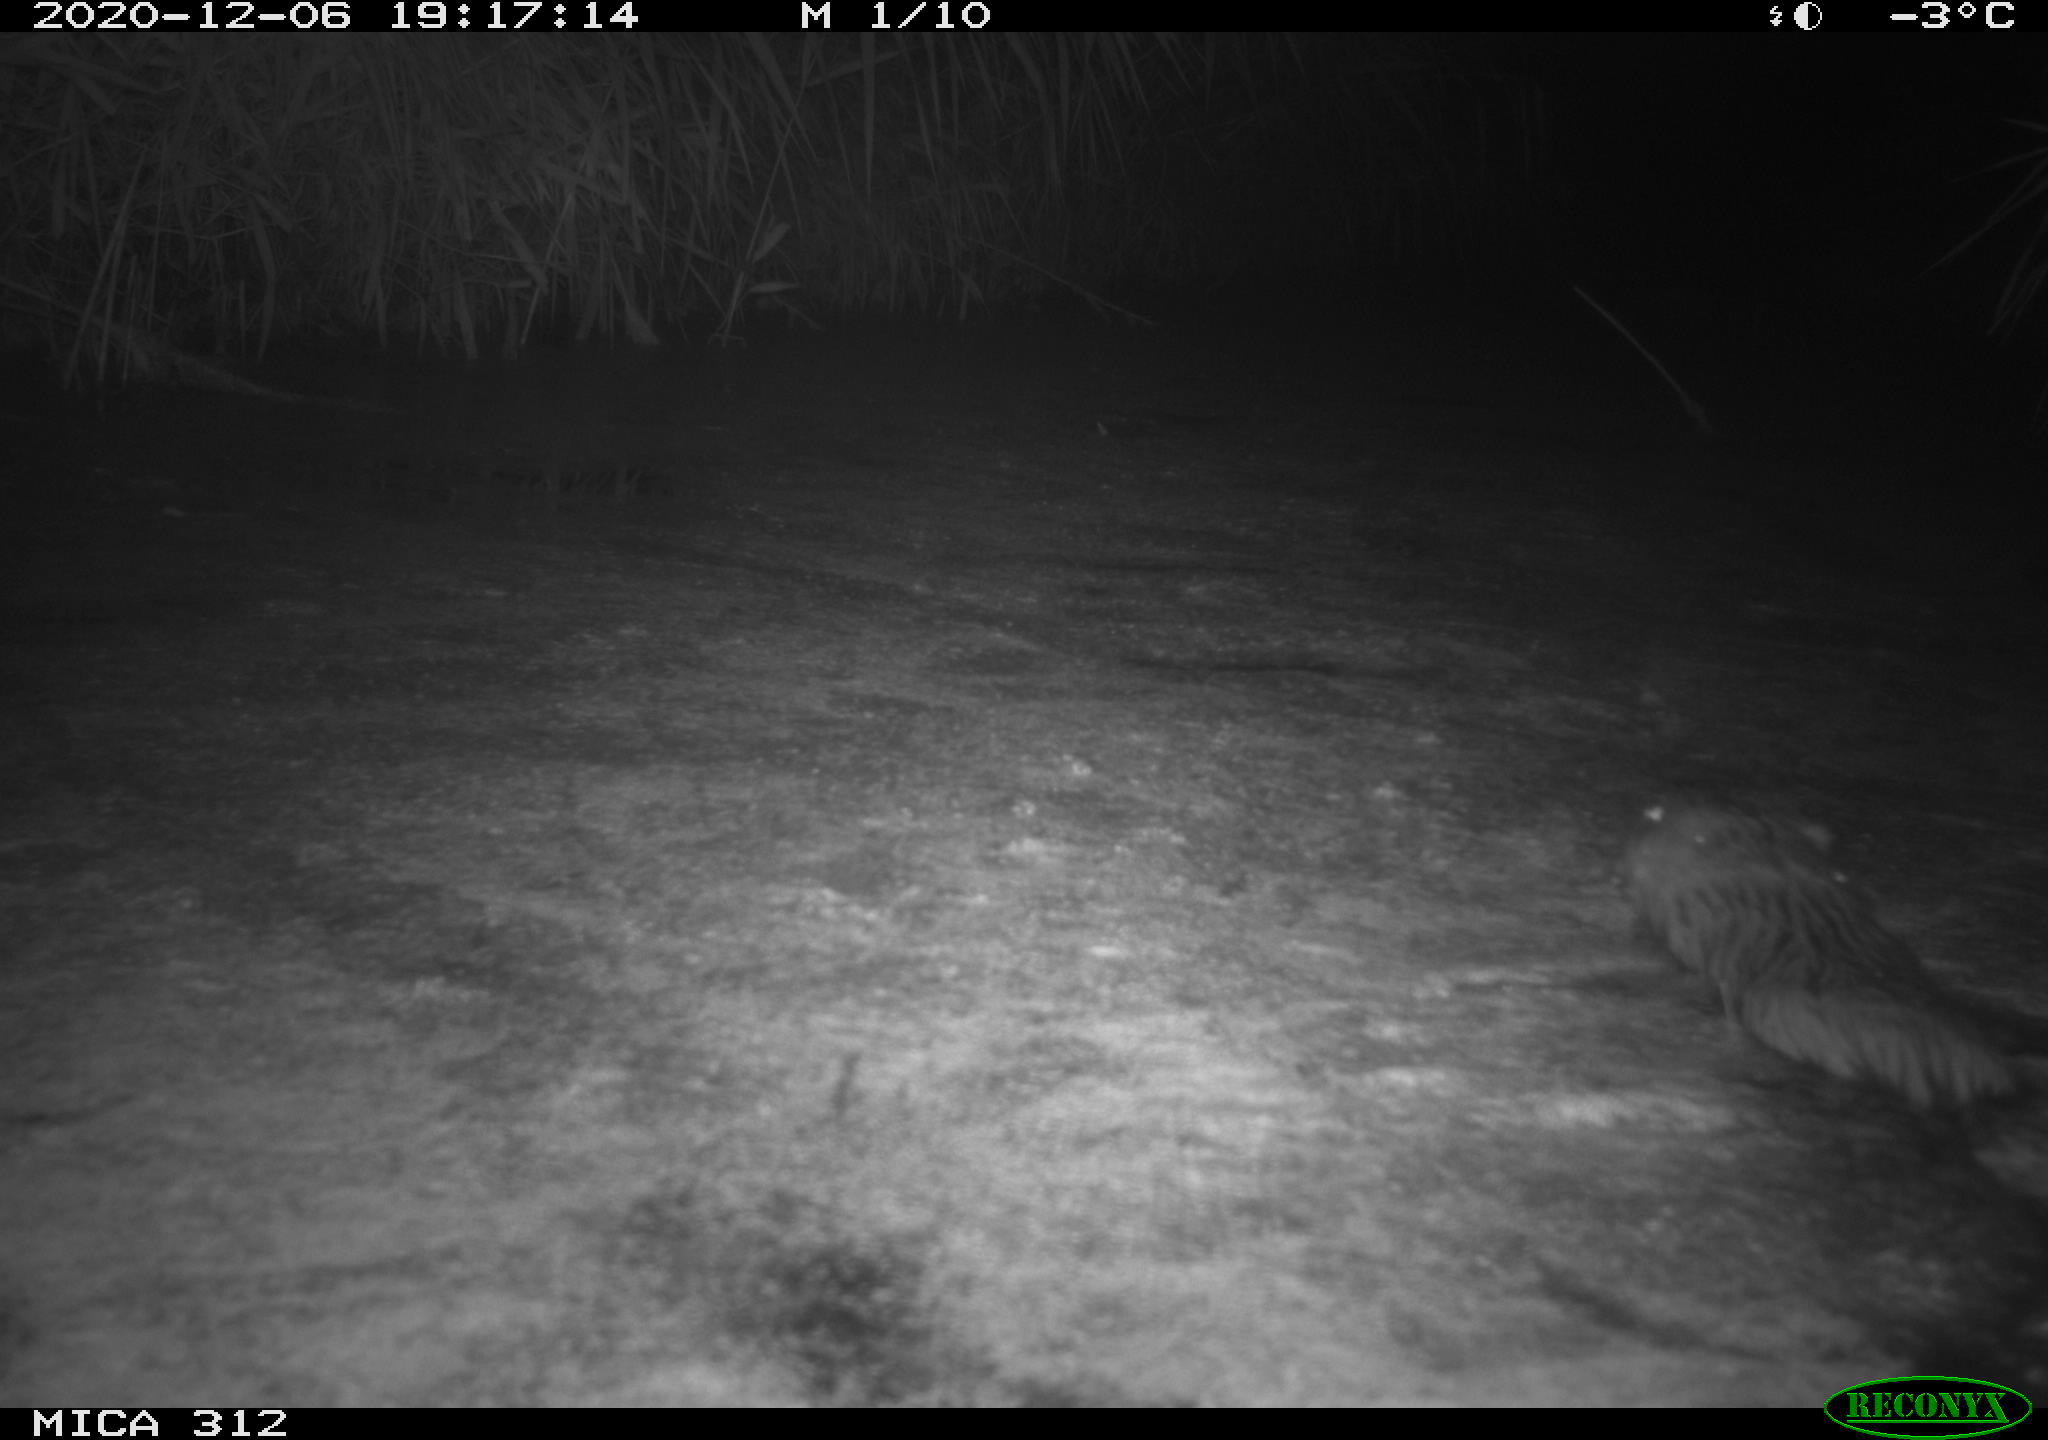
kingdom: Animalia
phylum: Chordata
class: Mammalia
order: Rodentia
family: Cricetidae
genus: Ondatra
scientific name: Ondatra zibethicus
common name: Muskrat
